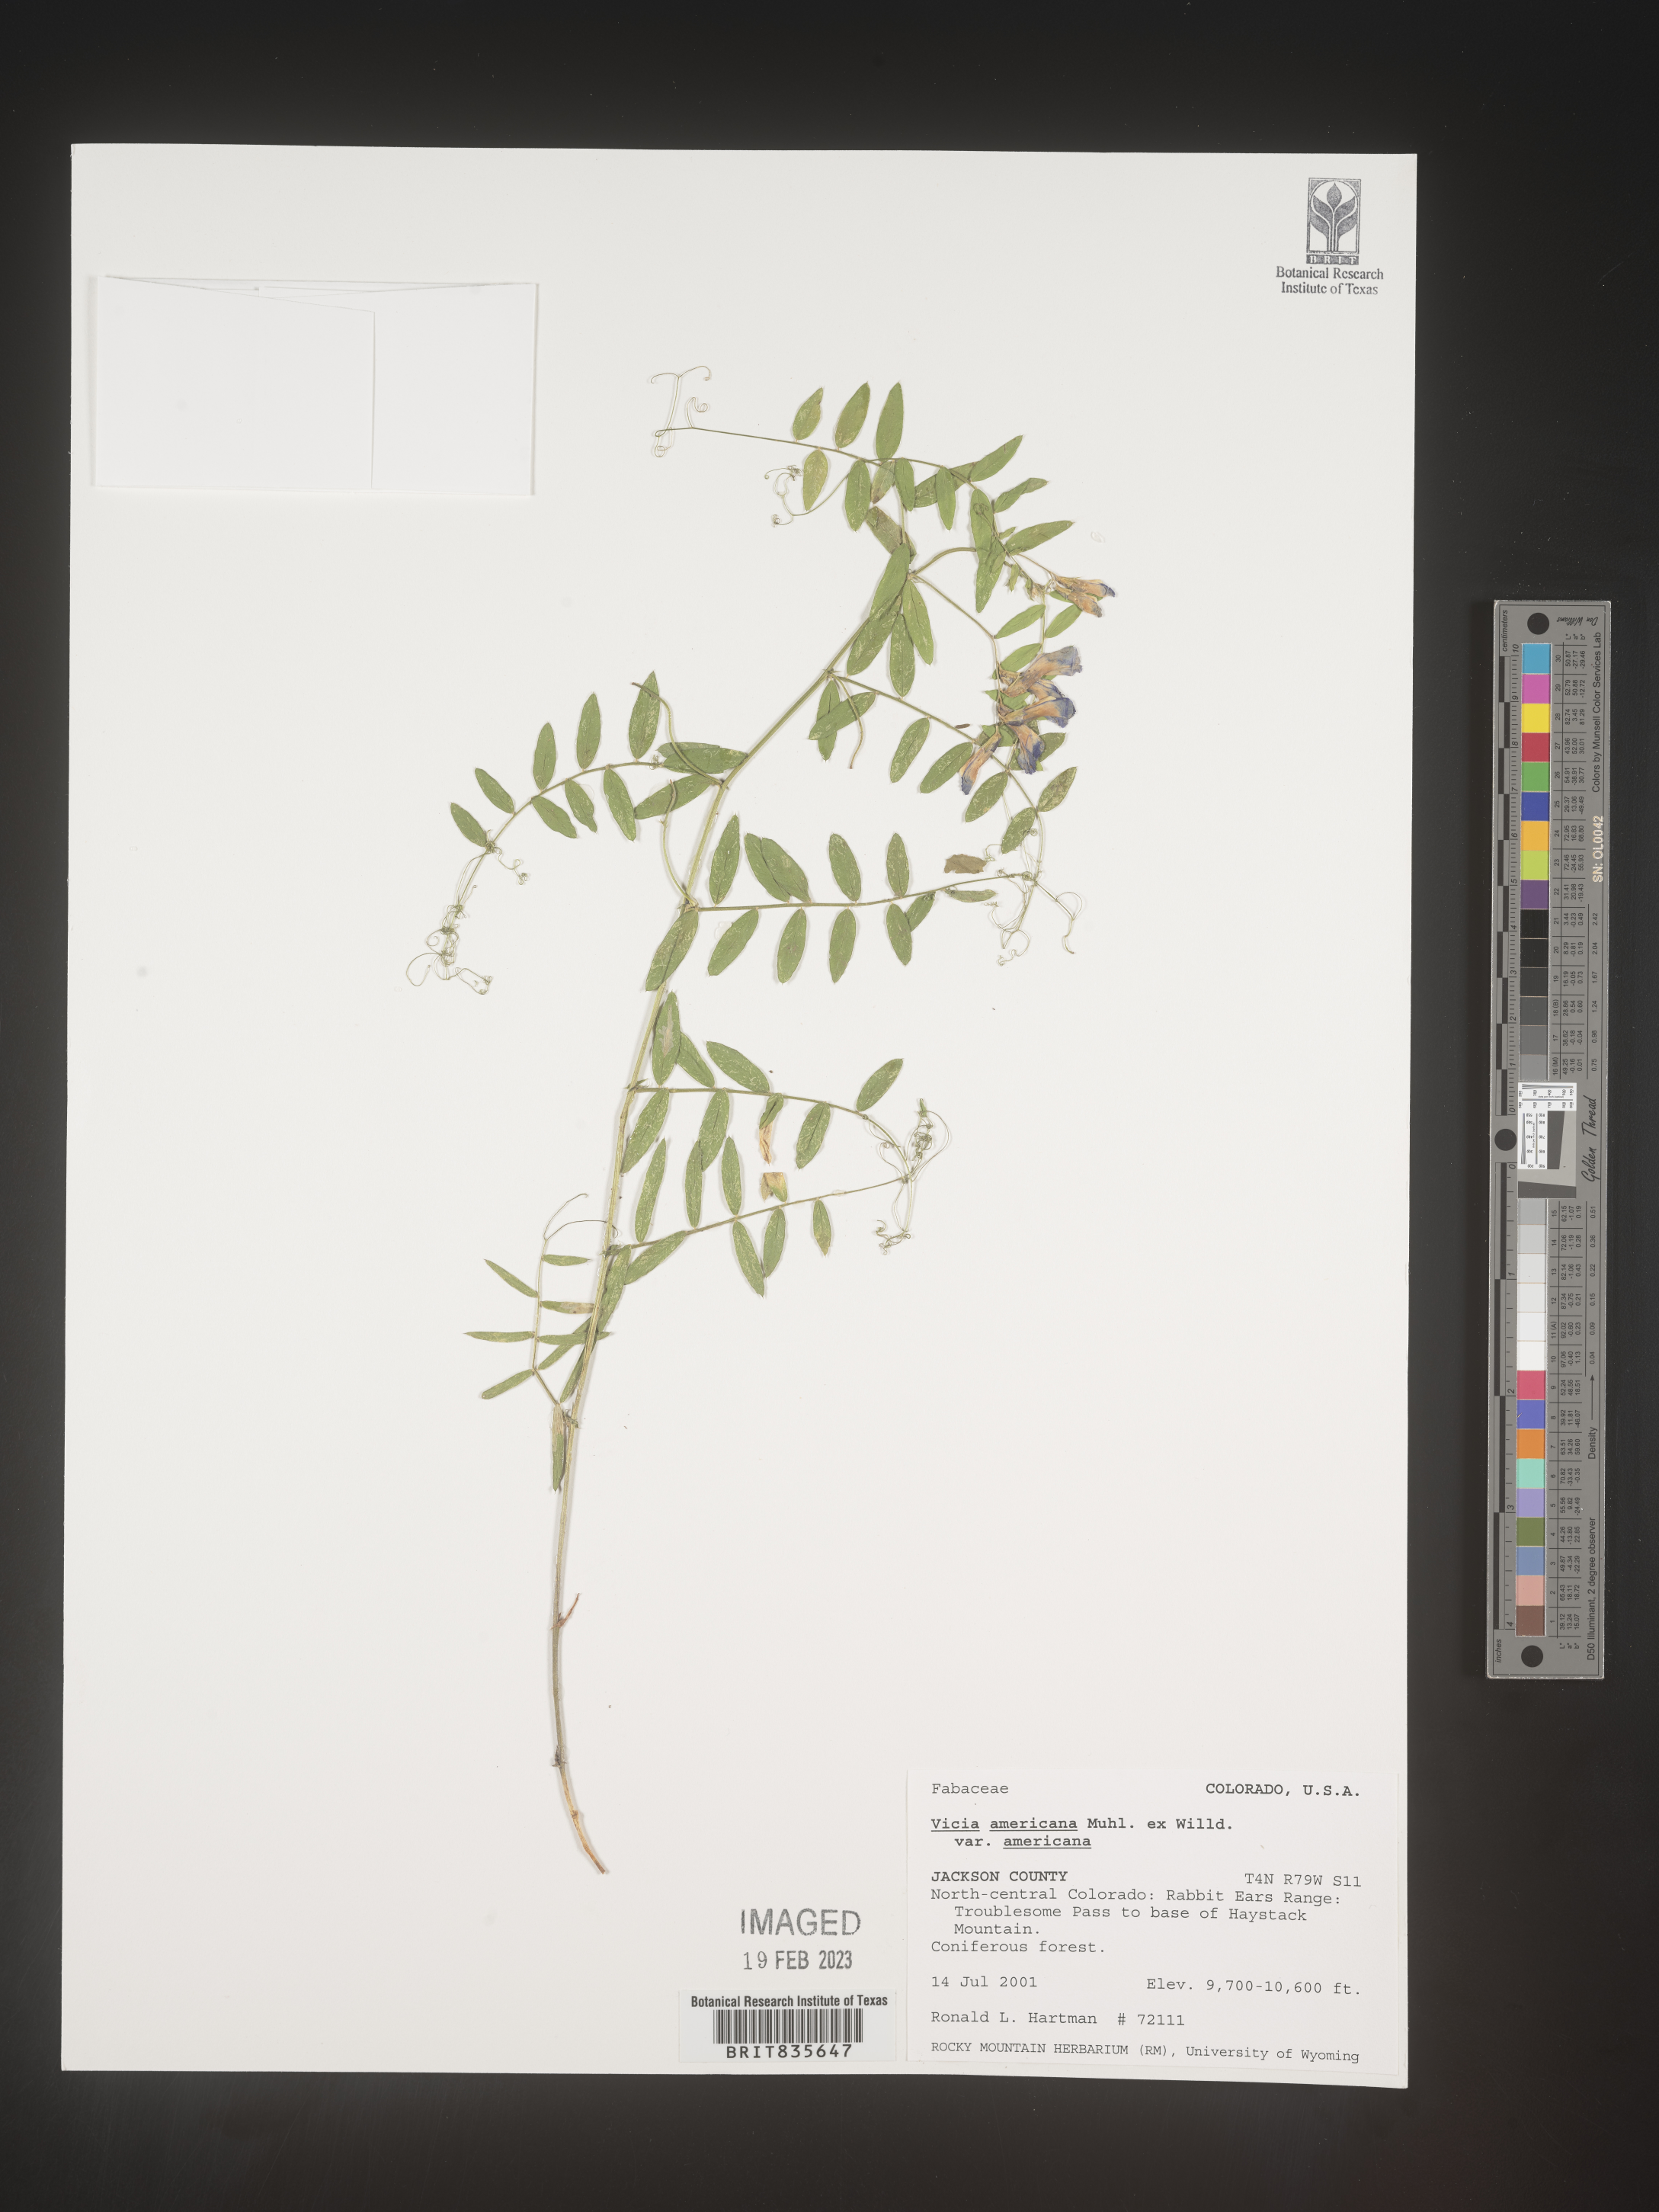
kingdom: Plantae
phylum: Tracheophyta
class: Magnoliopsida
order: Fabales
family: Fabaceae
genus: Vicia
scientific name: Vicia americana
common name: American vetch
